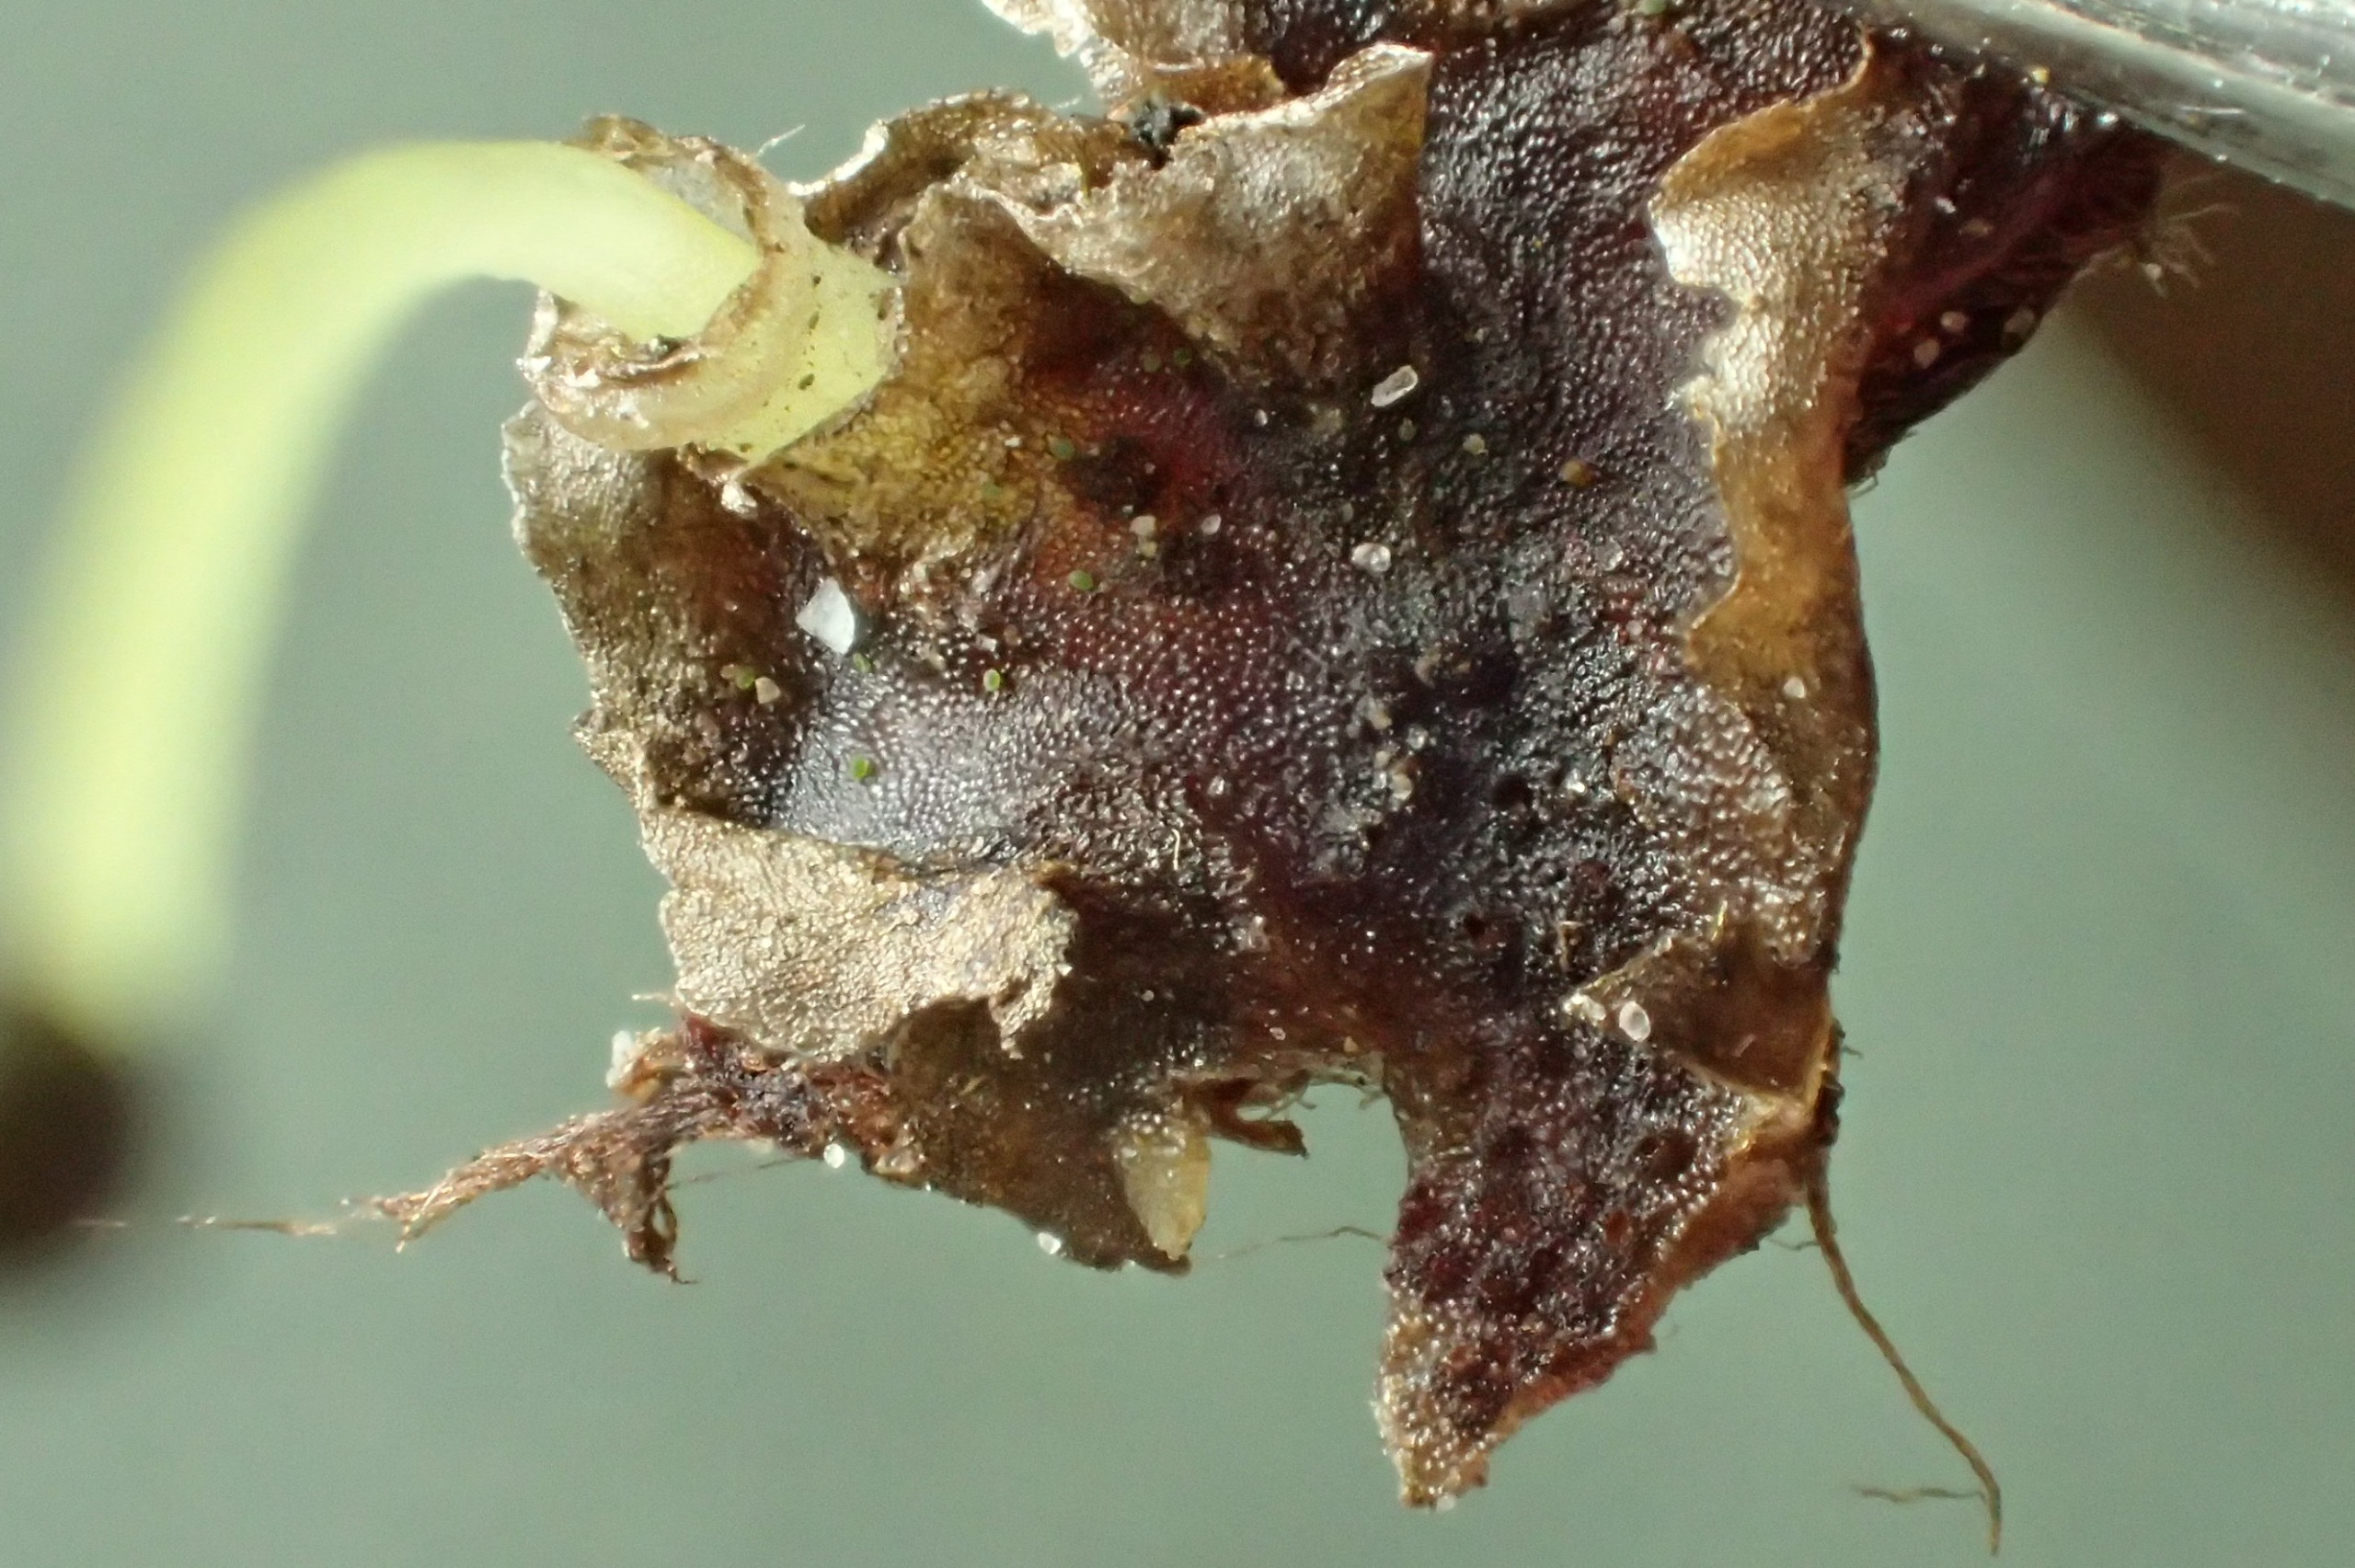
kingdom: Plantae
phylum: Marchantiophyta
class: Jungermanniopsida
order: Pelliales
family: Pelliaceae
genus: Pellia
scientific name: Pellia epiphylla
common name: Enbo ribbeløv
